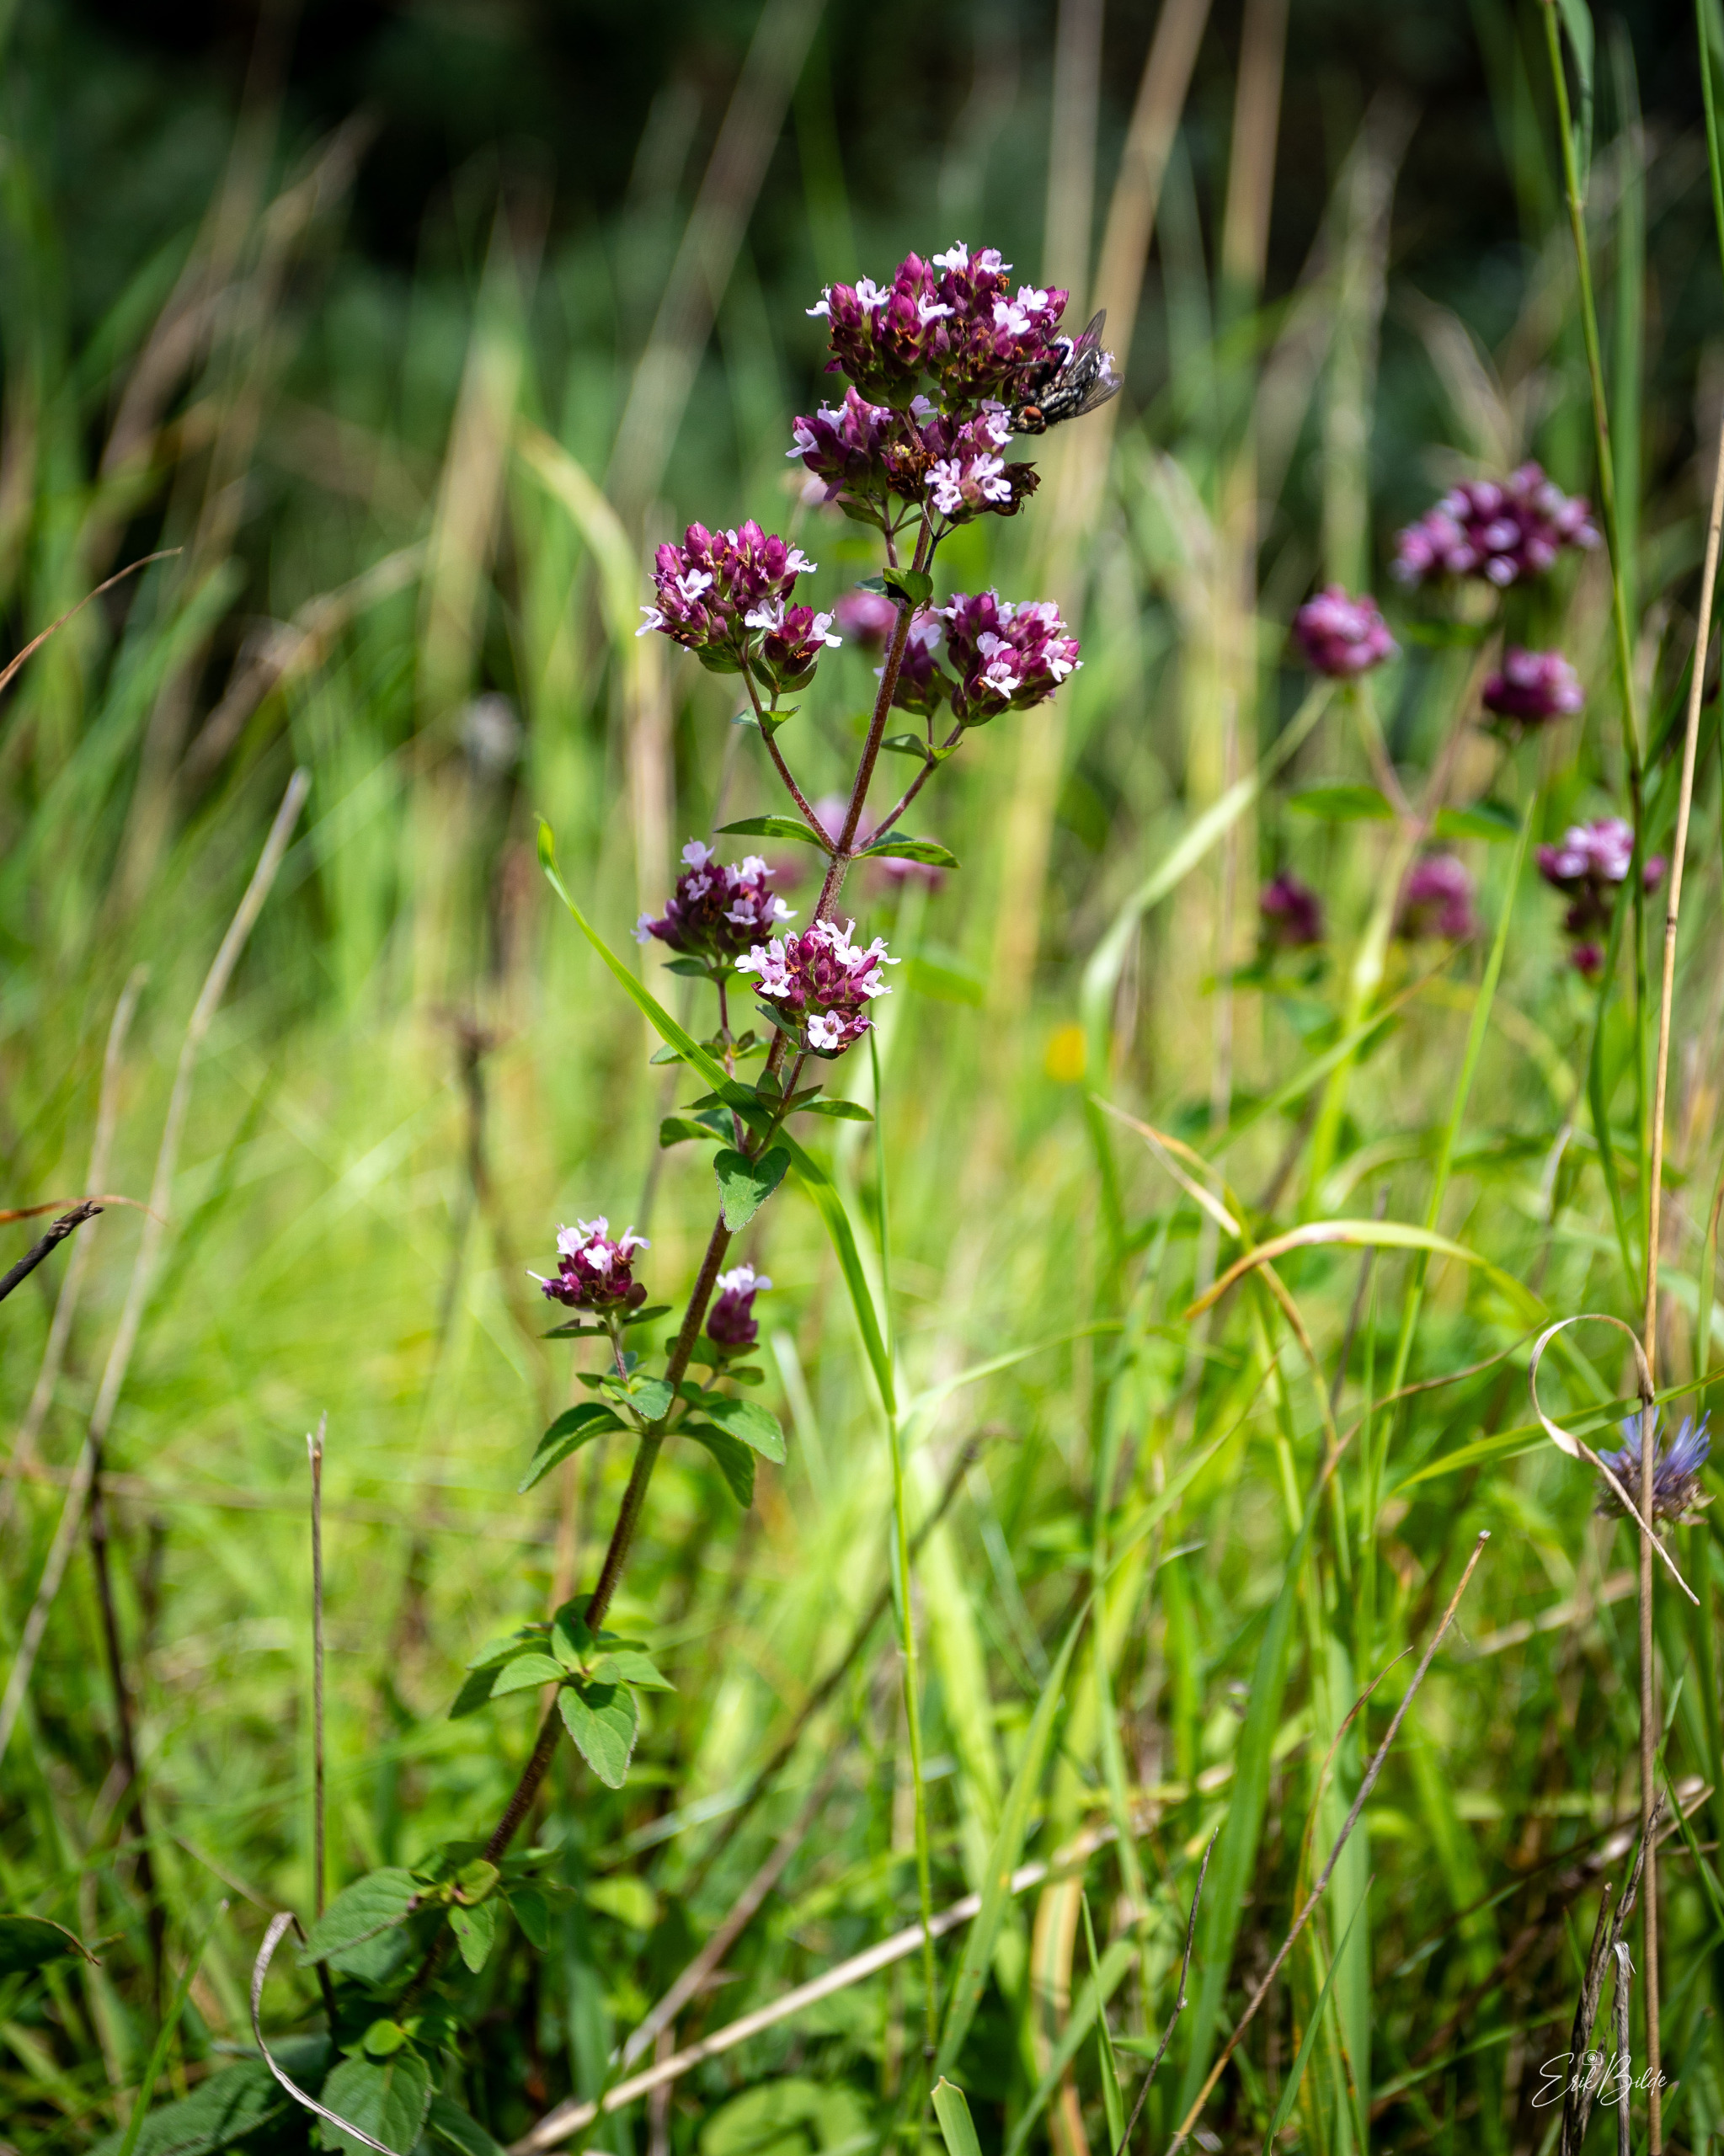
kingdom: Plantae
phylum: Tracheophyta
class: Magnoliopsida
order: Lamiales
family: Lamiaceae
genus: Origanum
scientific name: Origanum vulgare
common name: Merian
